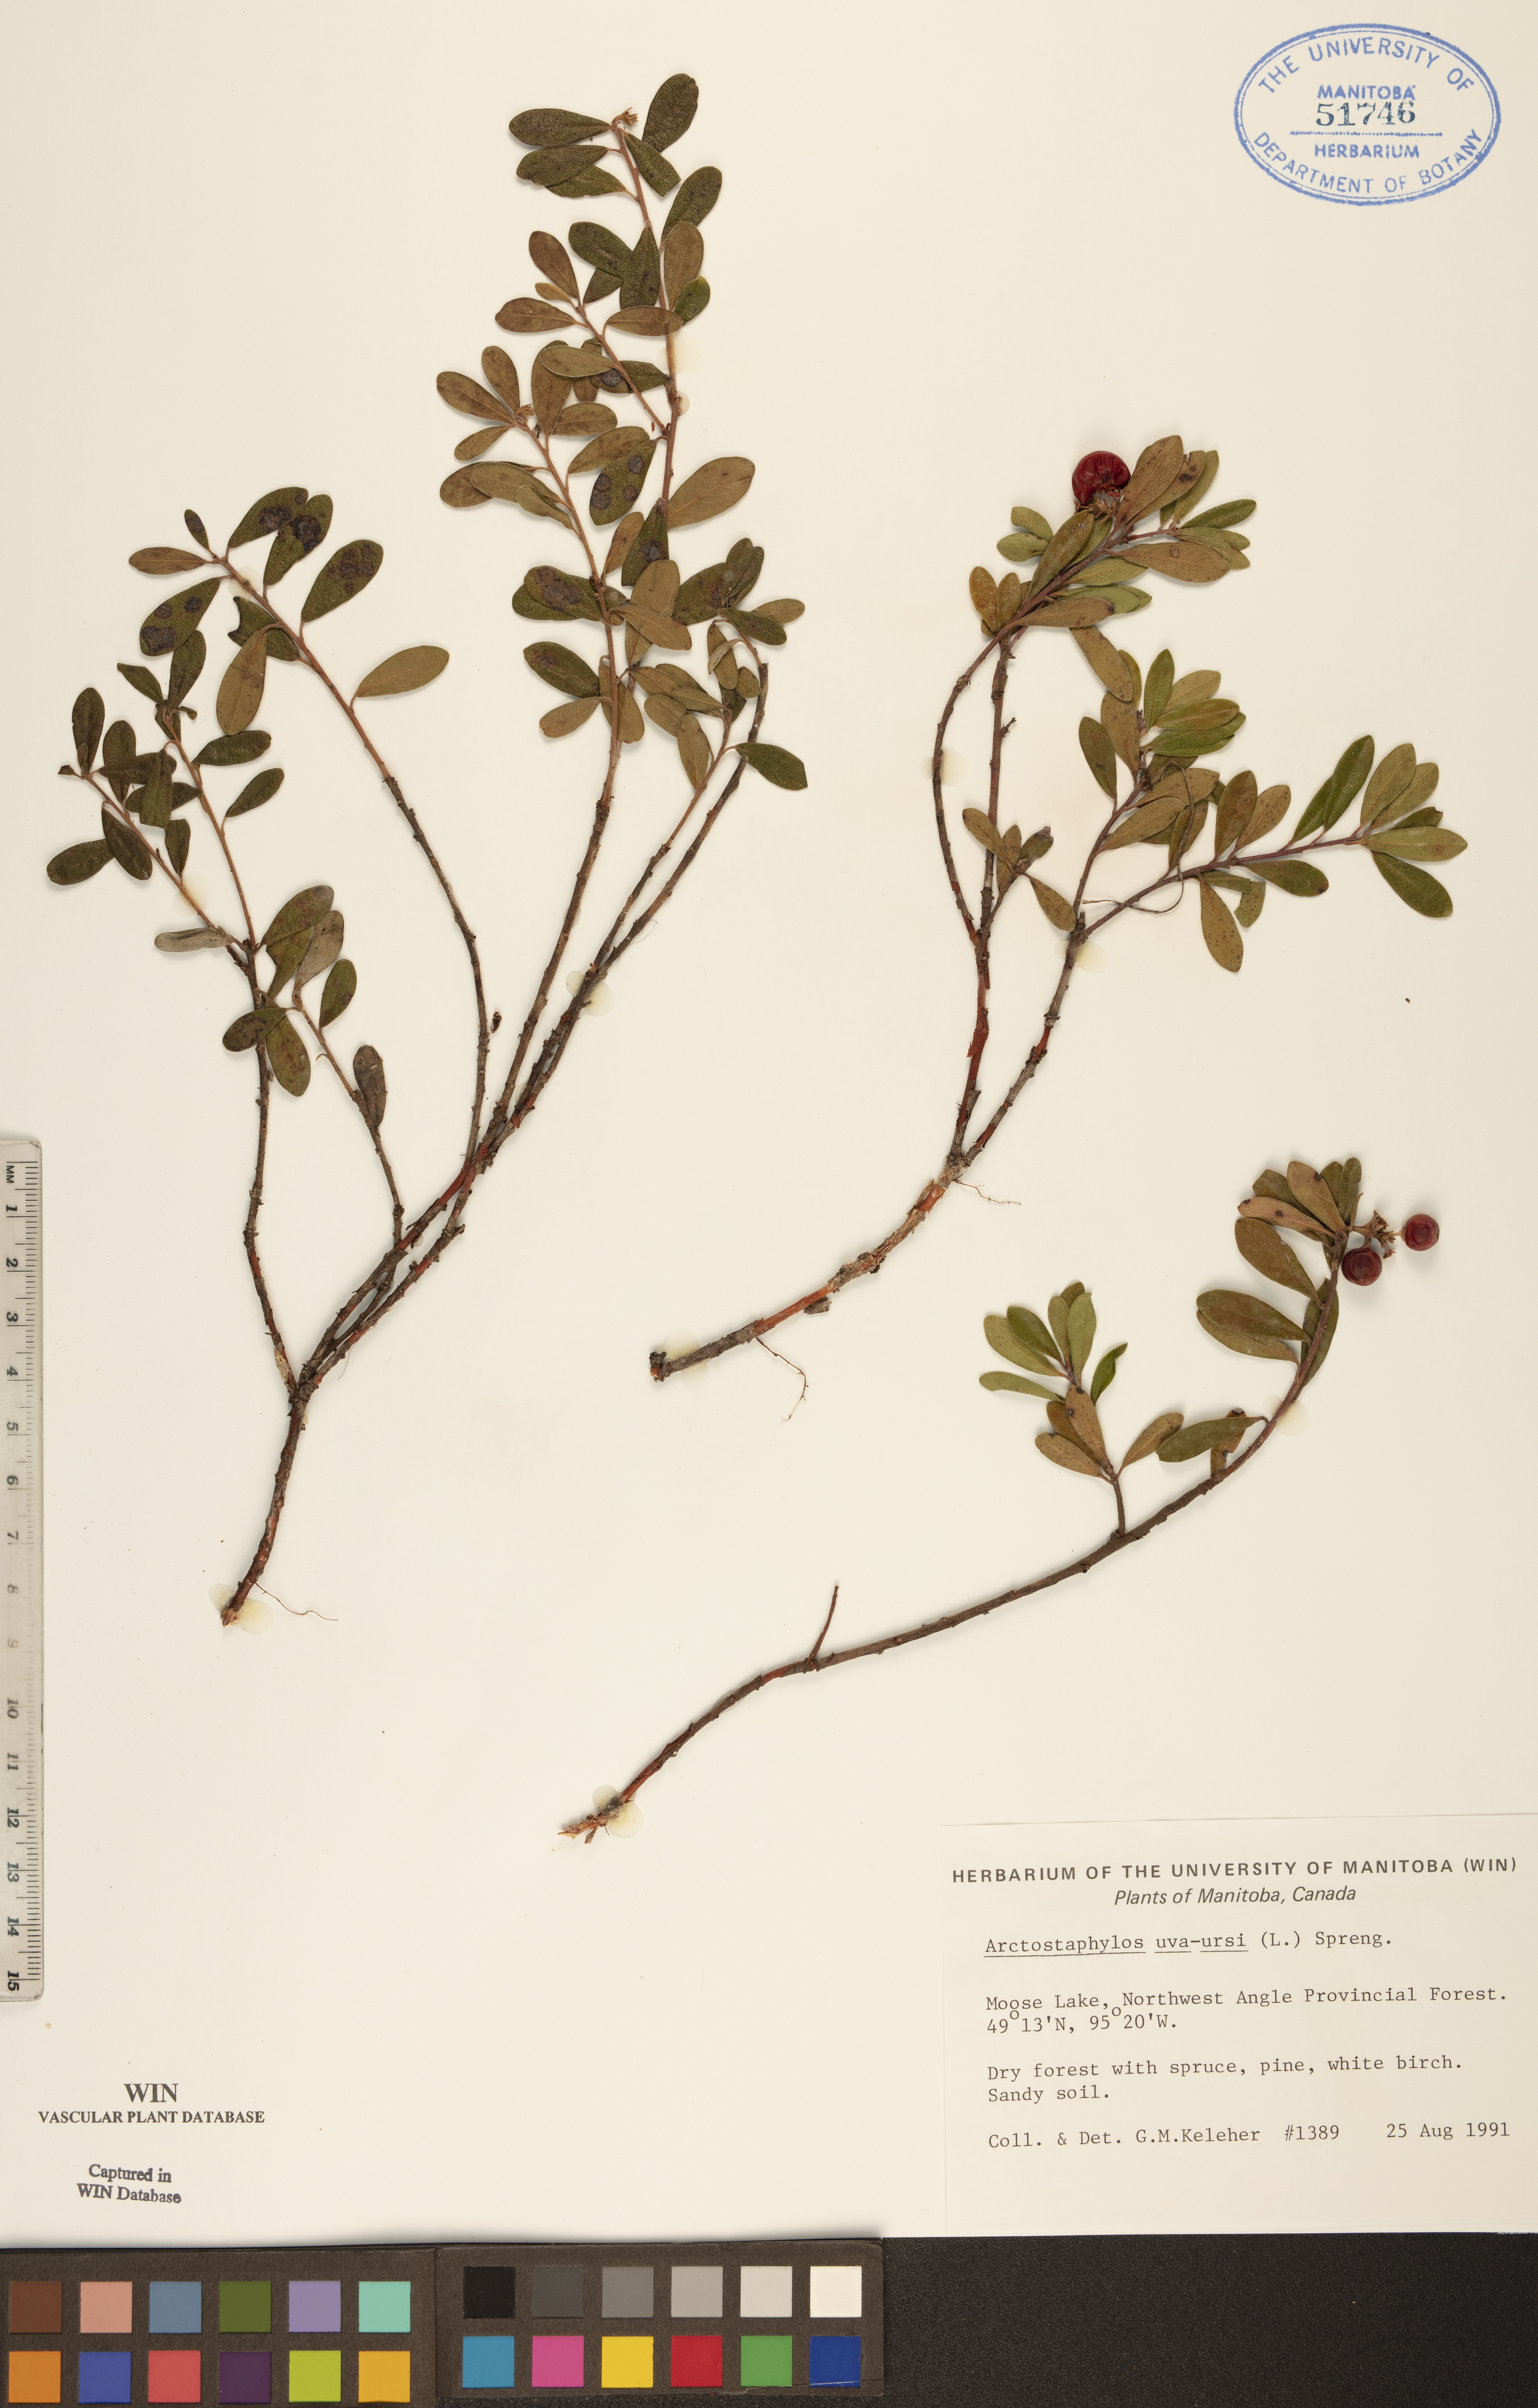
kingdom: Plantae
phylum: Tracheophyta
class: Magnoliopsida
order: Ericales
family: Ericaceae
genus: Arctostaphylos
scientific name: Arctostaphylos uva-ursi
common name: Bearberry
